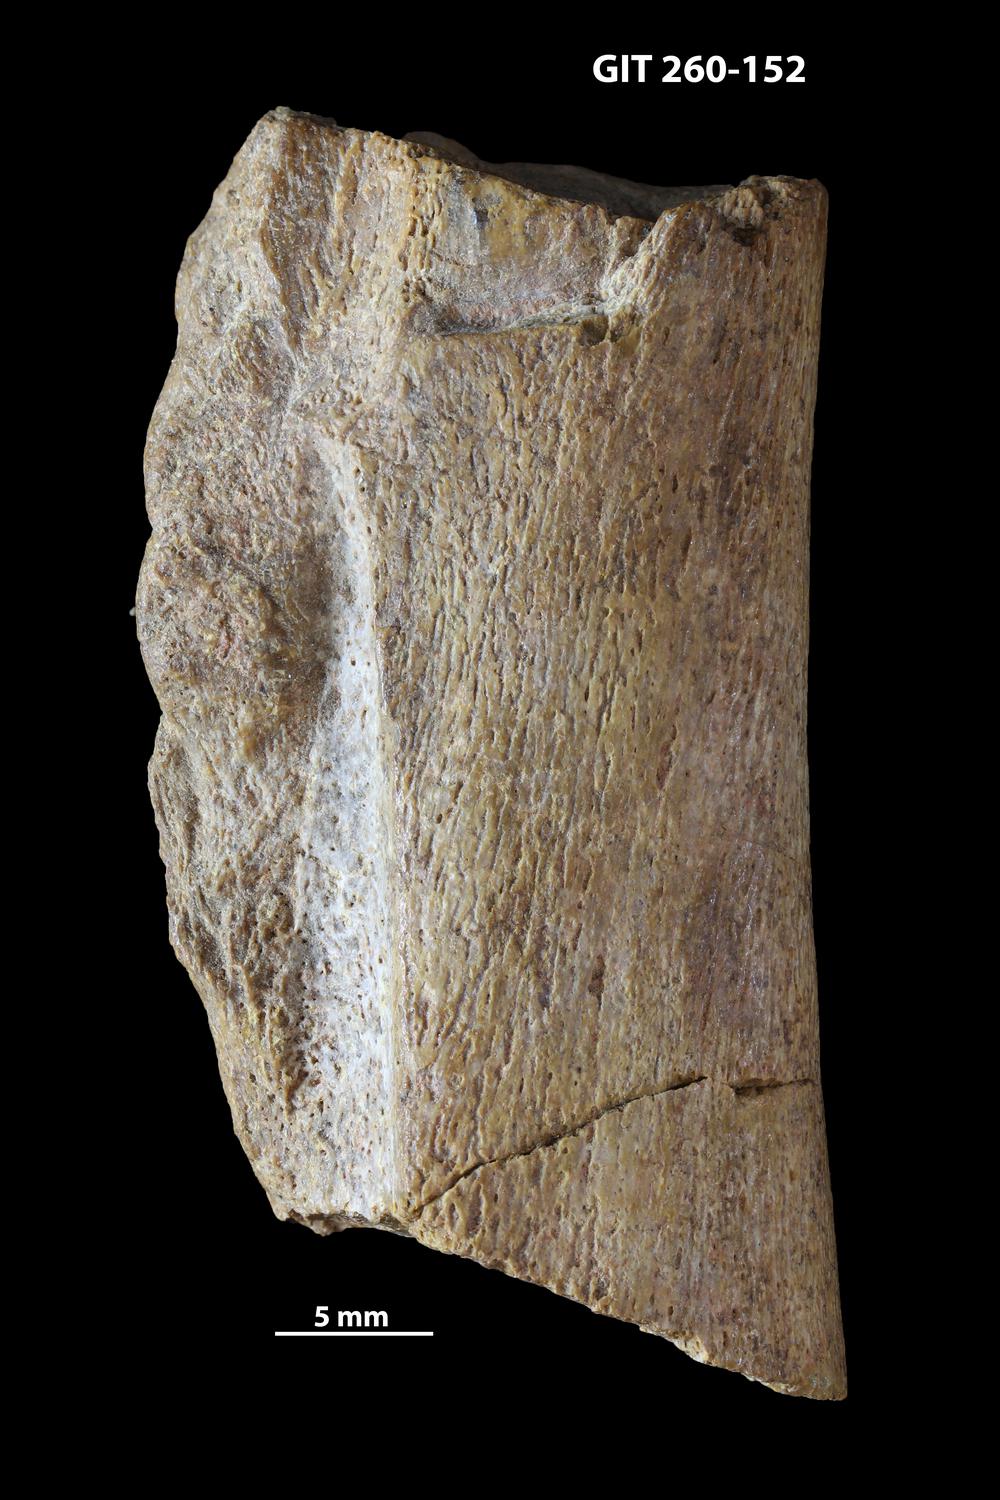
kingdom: Animalia
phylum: Chordata
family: Homostiidae
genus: Homostius
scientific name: Homostius
